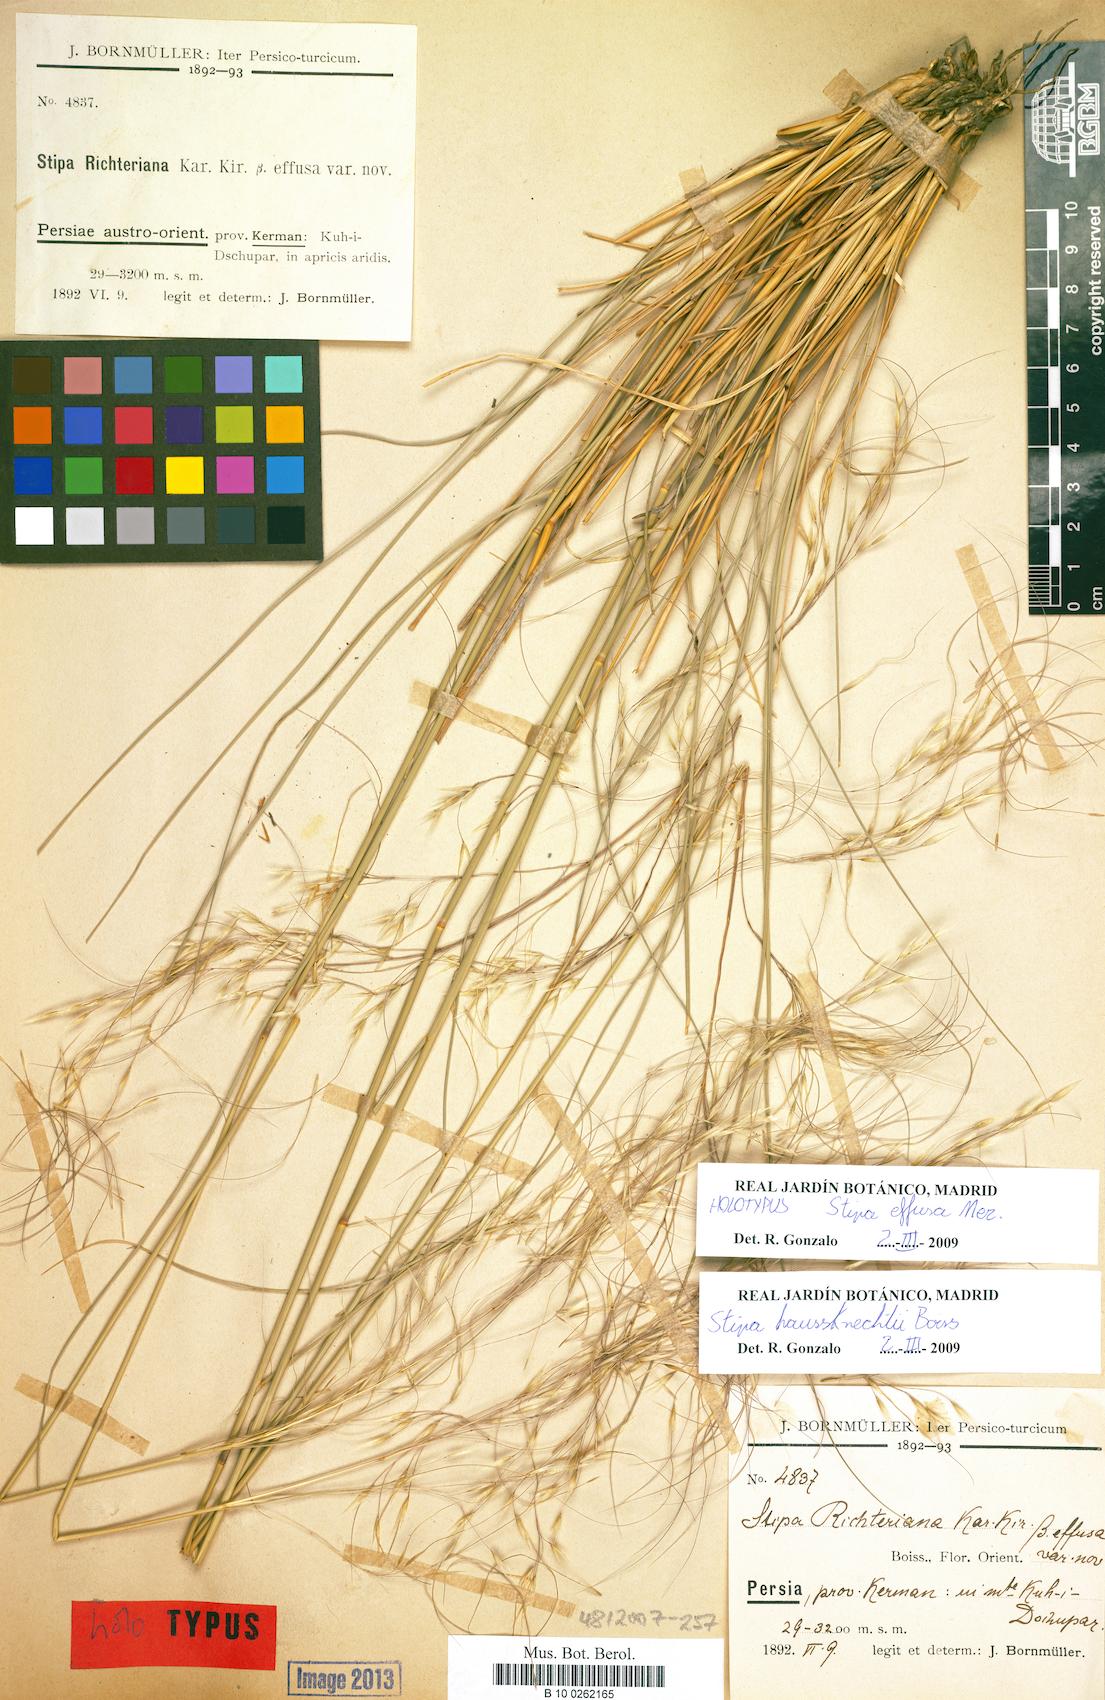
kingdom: Plantae
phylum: Tracheophyta
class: Liliopsida
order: Poales
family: Poaceae
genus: Stipa
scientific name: Stipa richteriana
